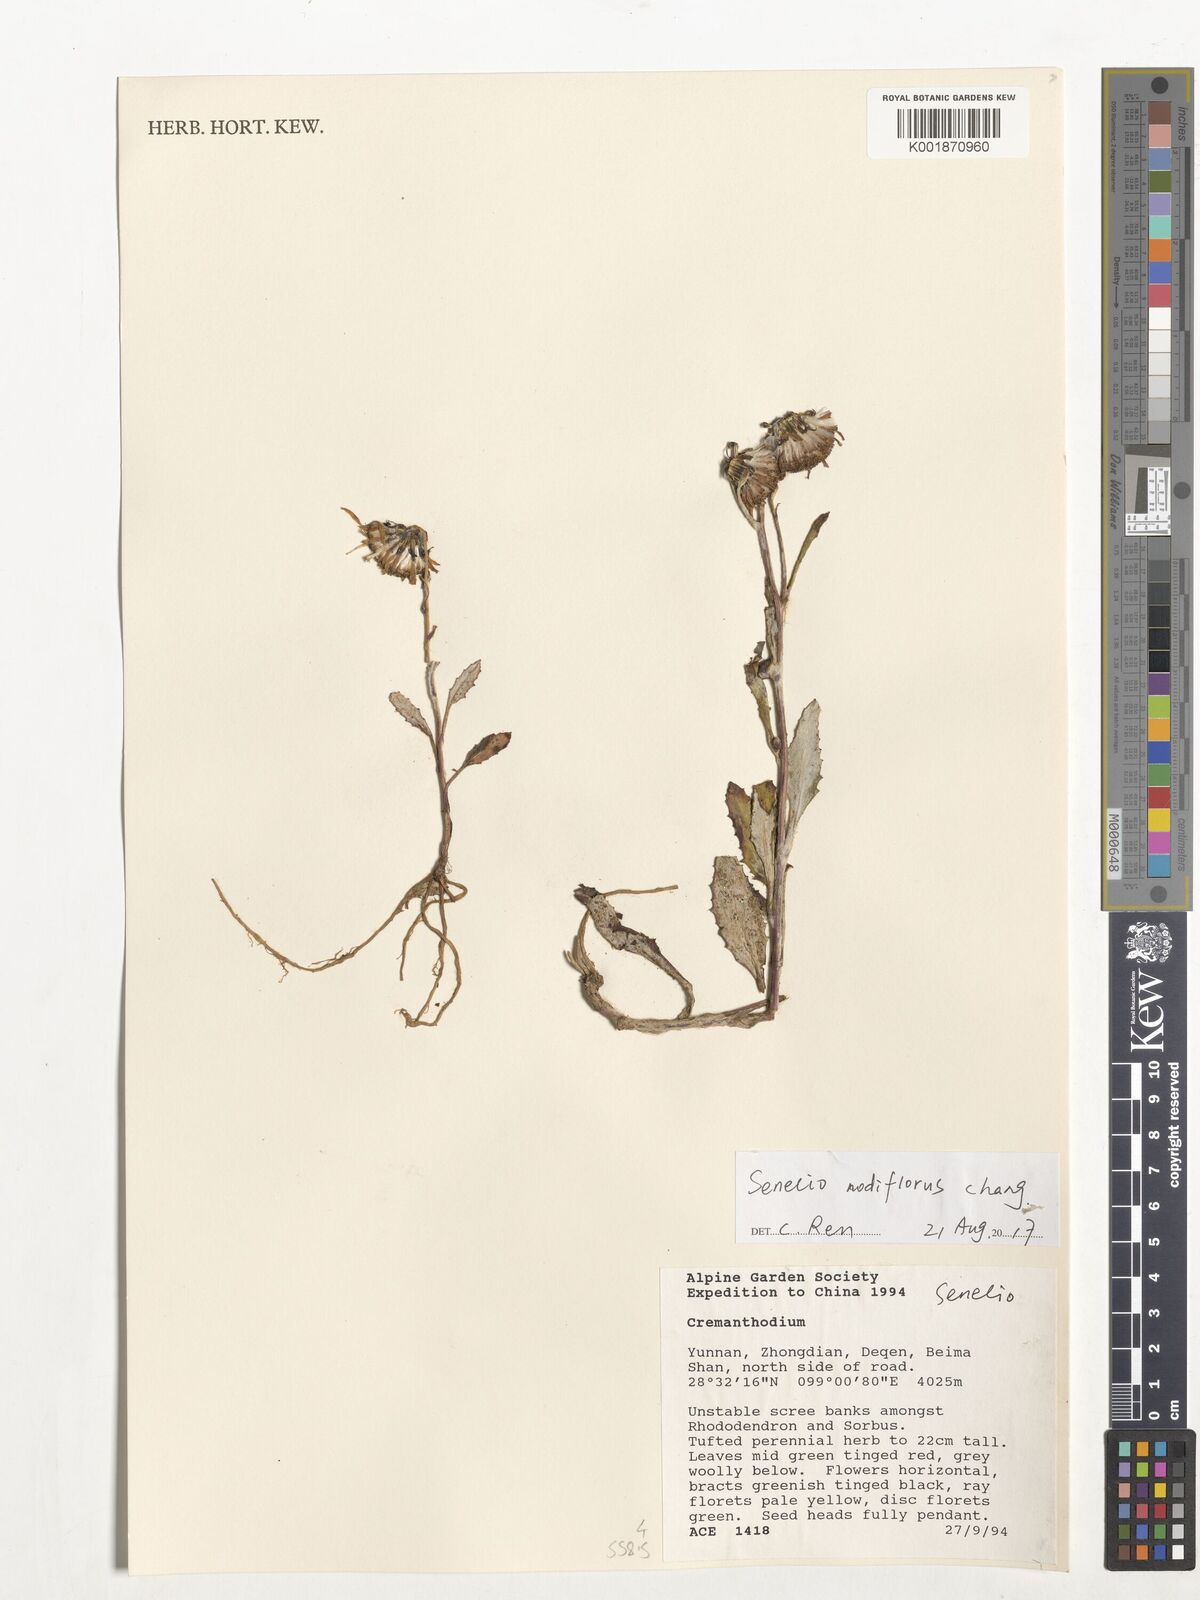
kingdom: Plantae
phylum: Tracheophyta
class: Magnoliopsida
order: Asterales
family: Asteraceae
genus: Senecio
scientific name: Senecio nodiflorus
